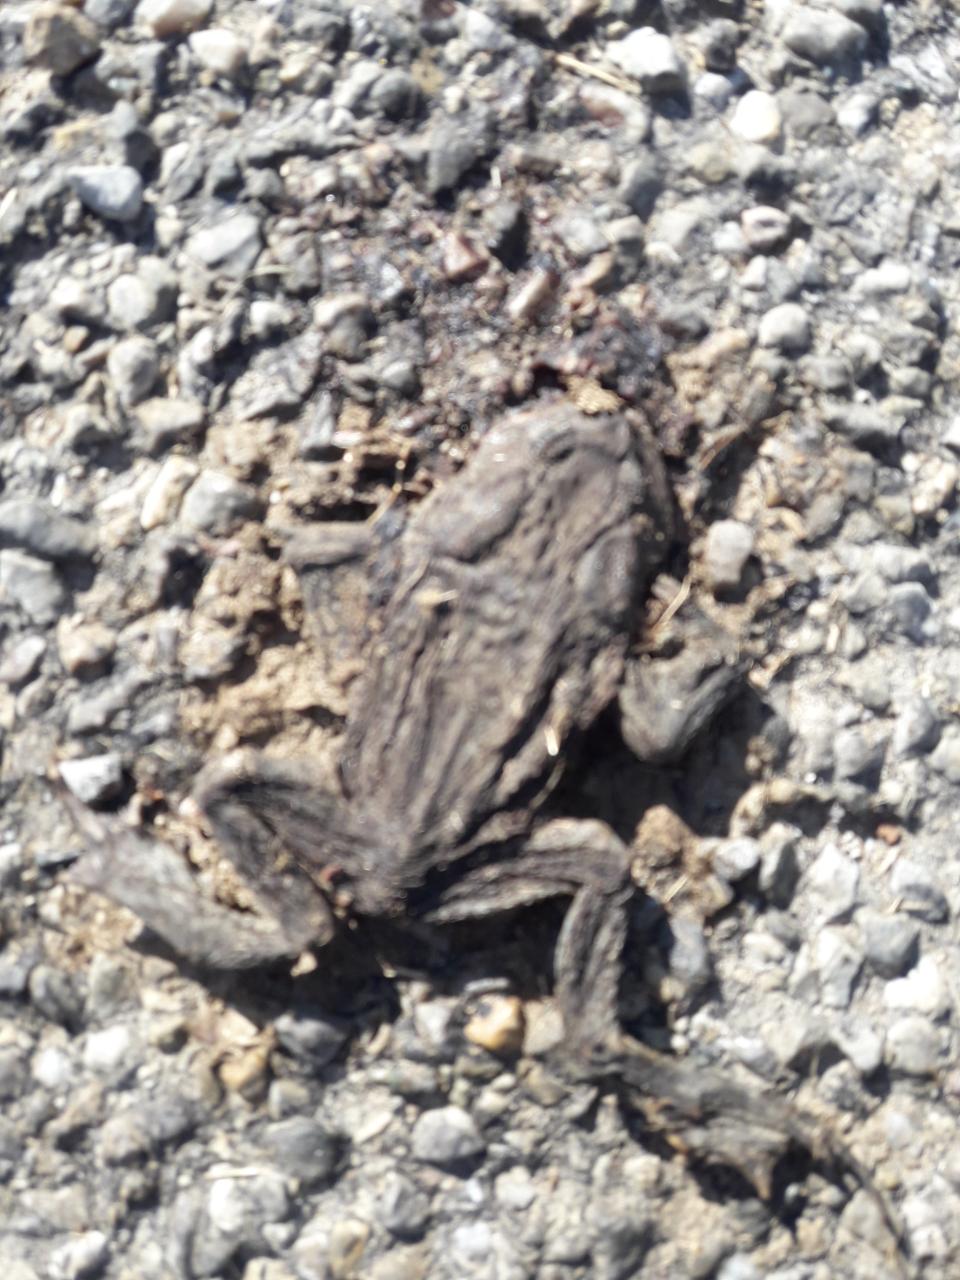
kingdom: Animalia
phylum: Chordata
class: Amphibia
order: Anura
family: Bufonidae
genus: Bufo
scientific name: Bufo bufo
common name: Common toad
